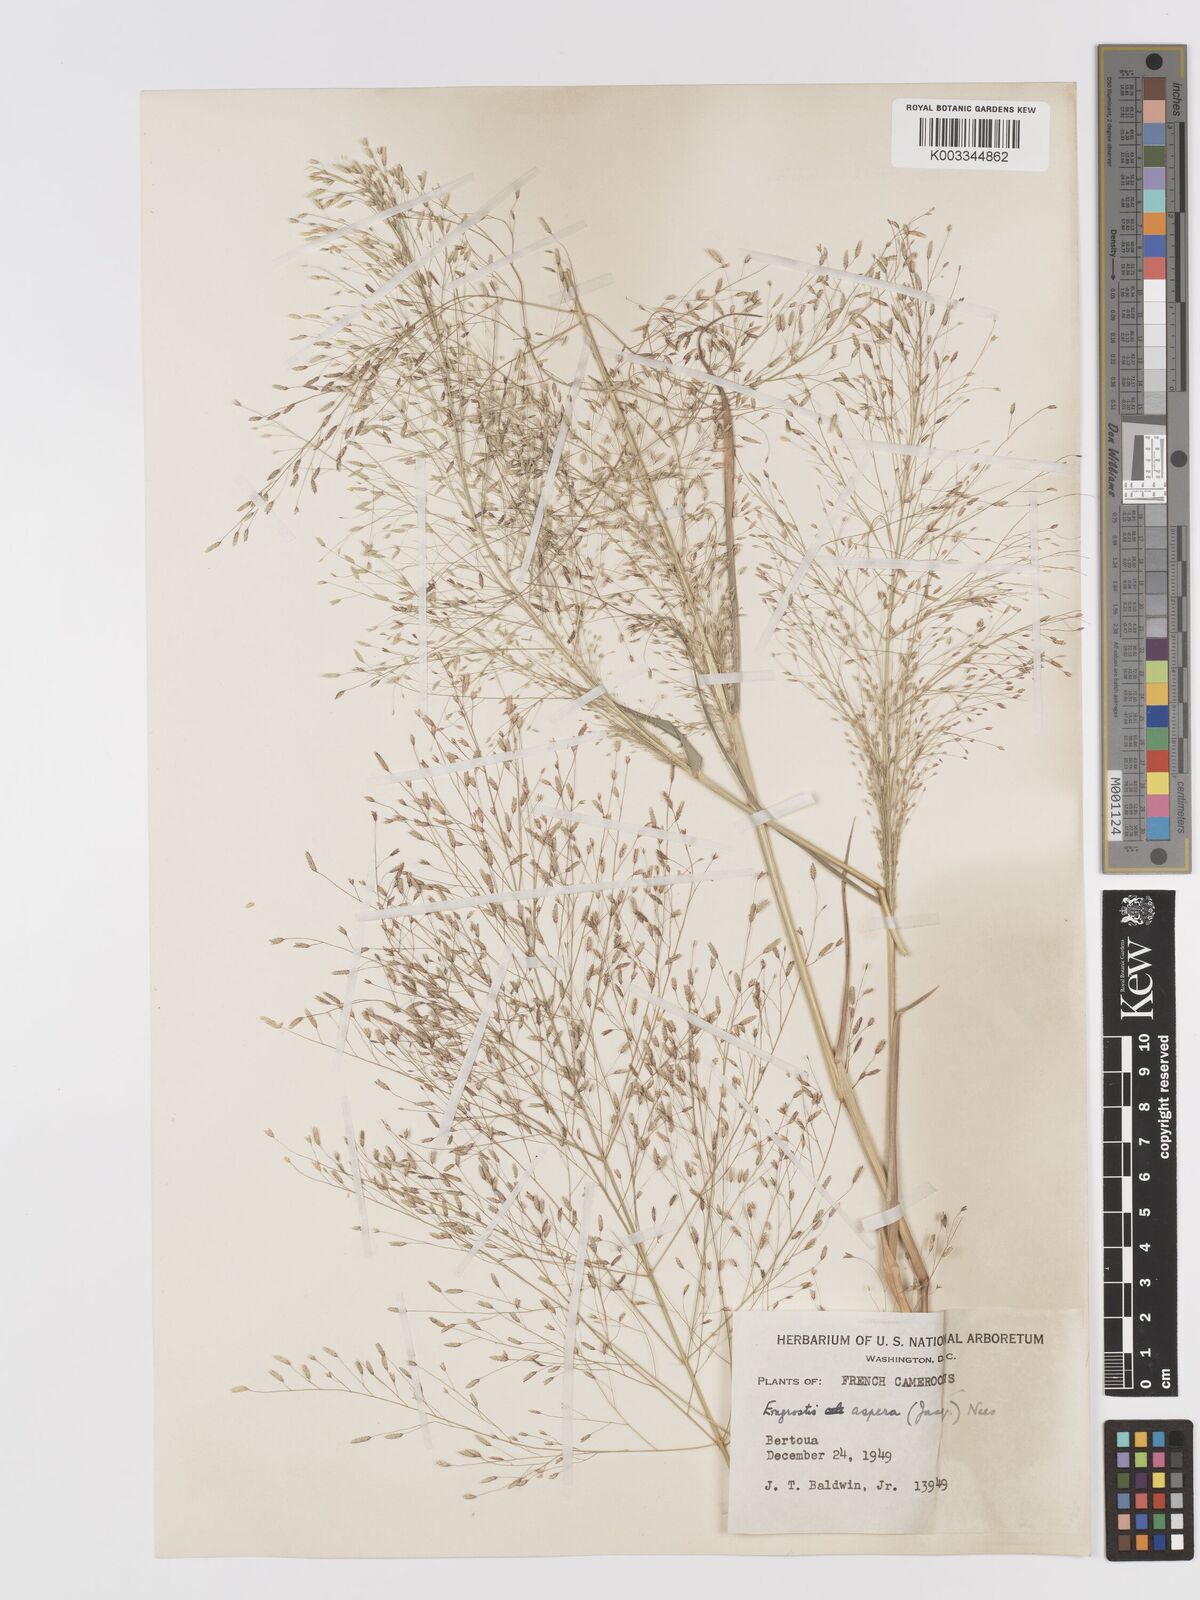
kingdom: Plantae
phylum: Tracheophyta
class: Liliopsida
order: Poales
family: Poaceae
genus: Eragrostis
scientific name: Eragrostis aspera
